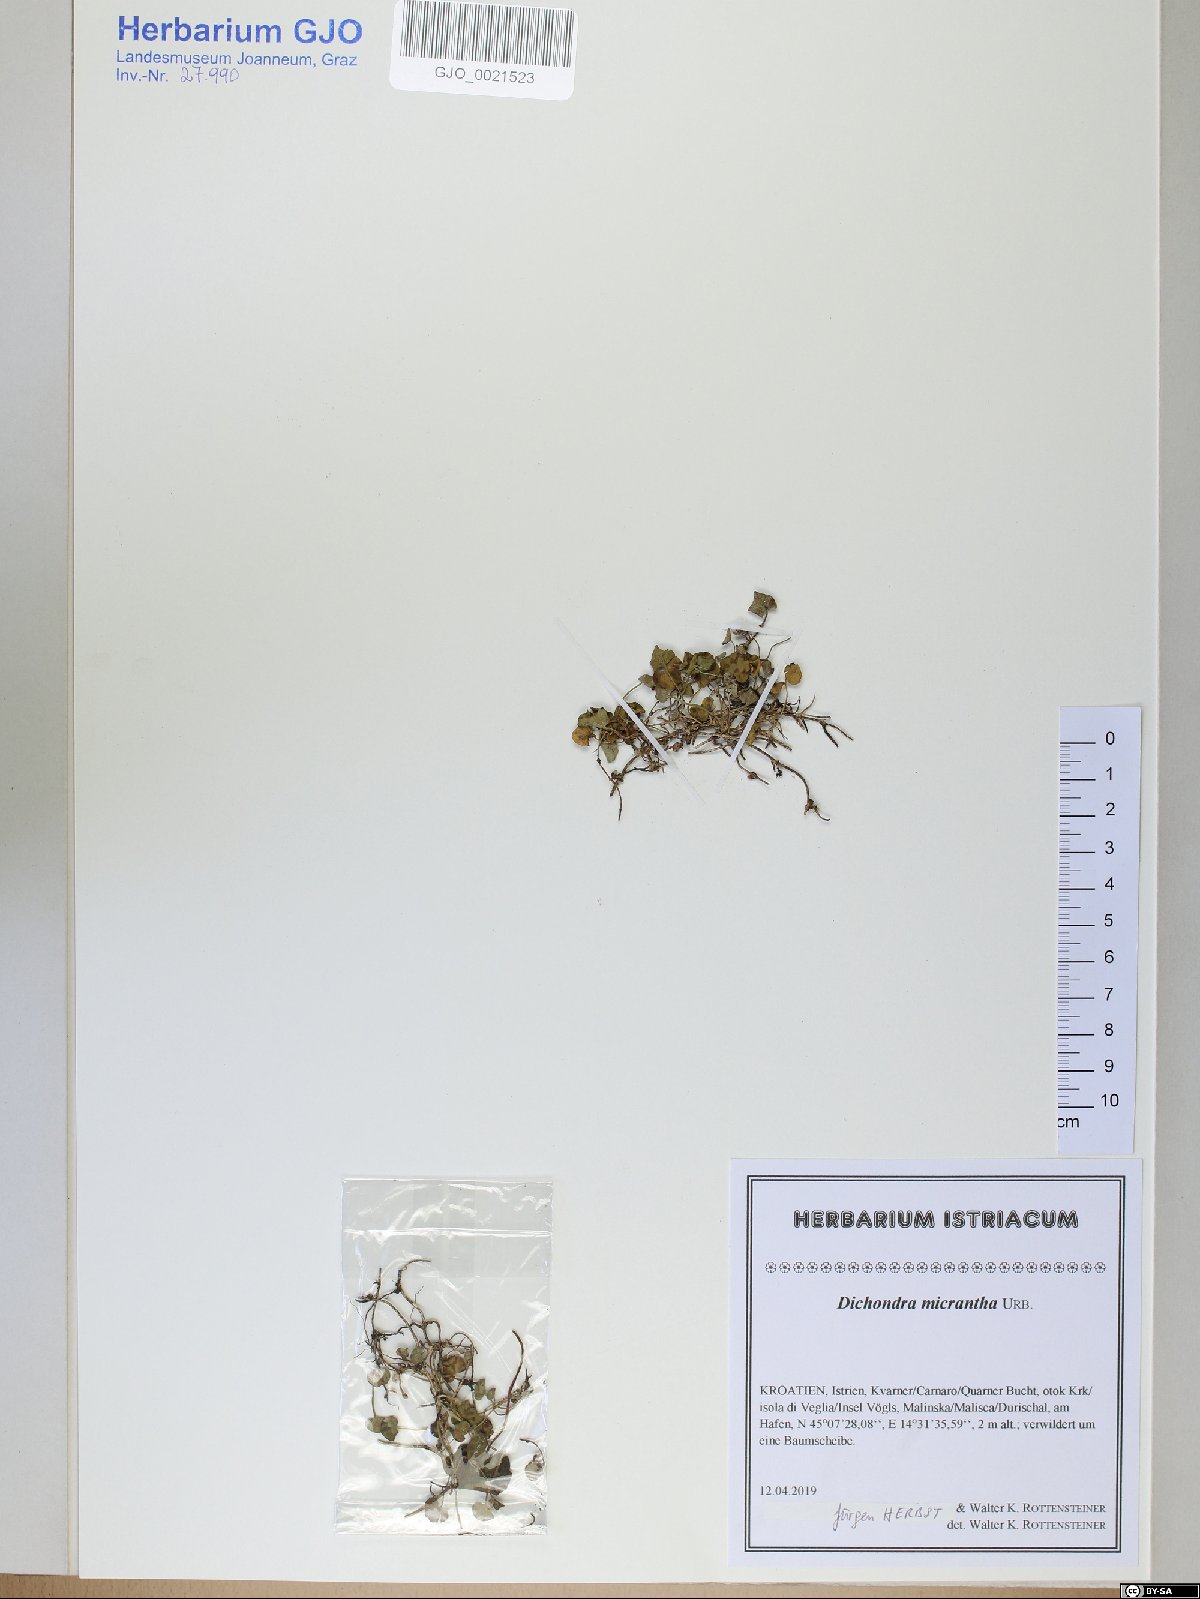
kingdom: Plantae
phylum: Tracheophyta
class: Magnoliopsida
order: Solanales
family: Convolvulaceae
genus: Dichondra
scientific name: Dichondra micrantha
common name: Kidneyweed
